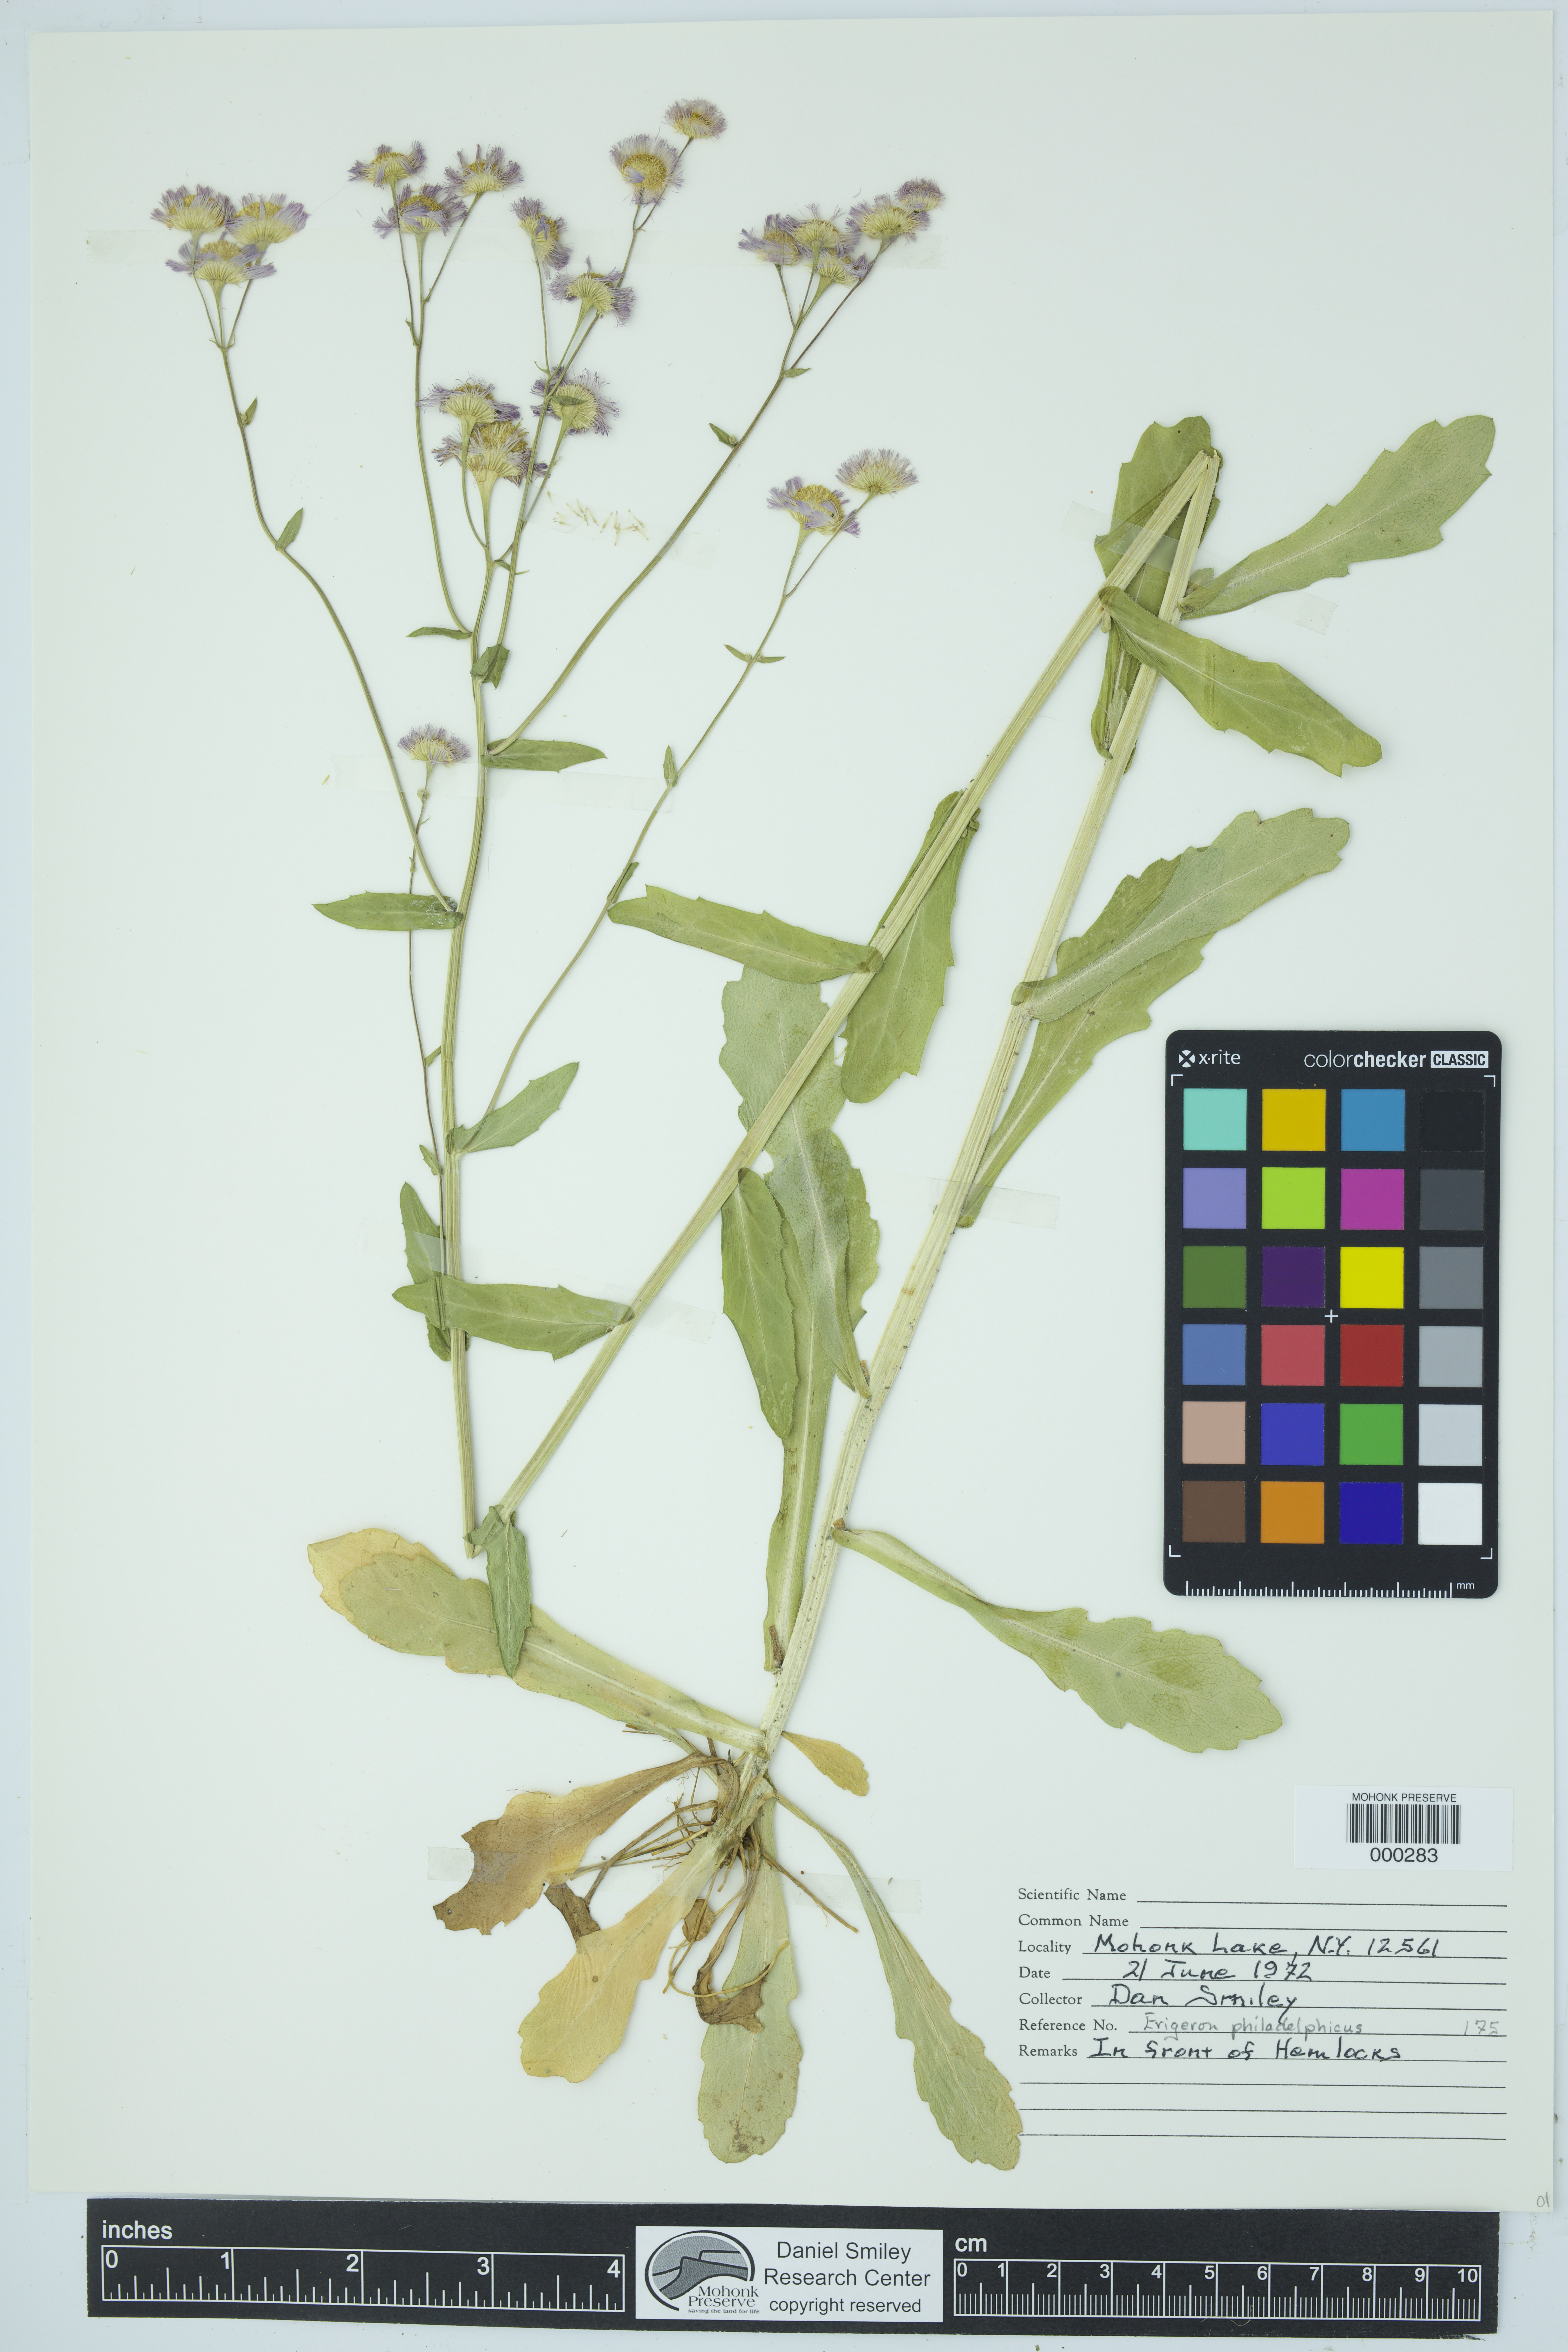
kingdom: Plantae
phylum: Tracheophyta
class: Magnoliopsida
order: Asterales
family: Asteraceae
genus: Erigeron
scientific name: Erigeron philadelphicus
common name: Robin's-plantain
